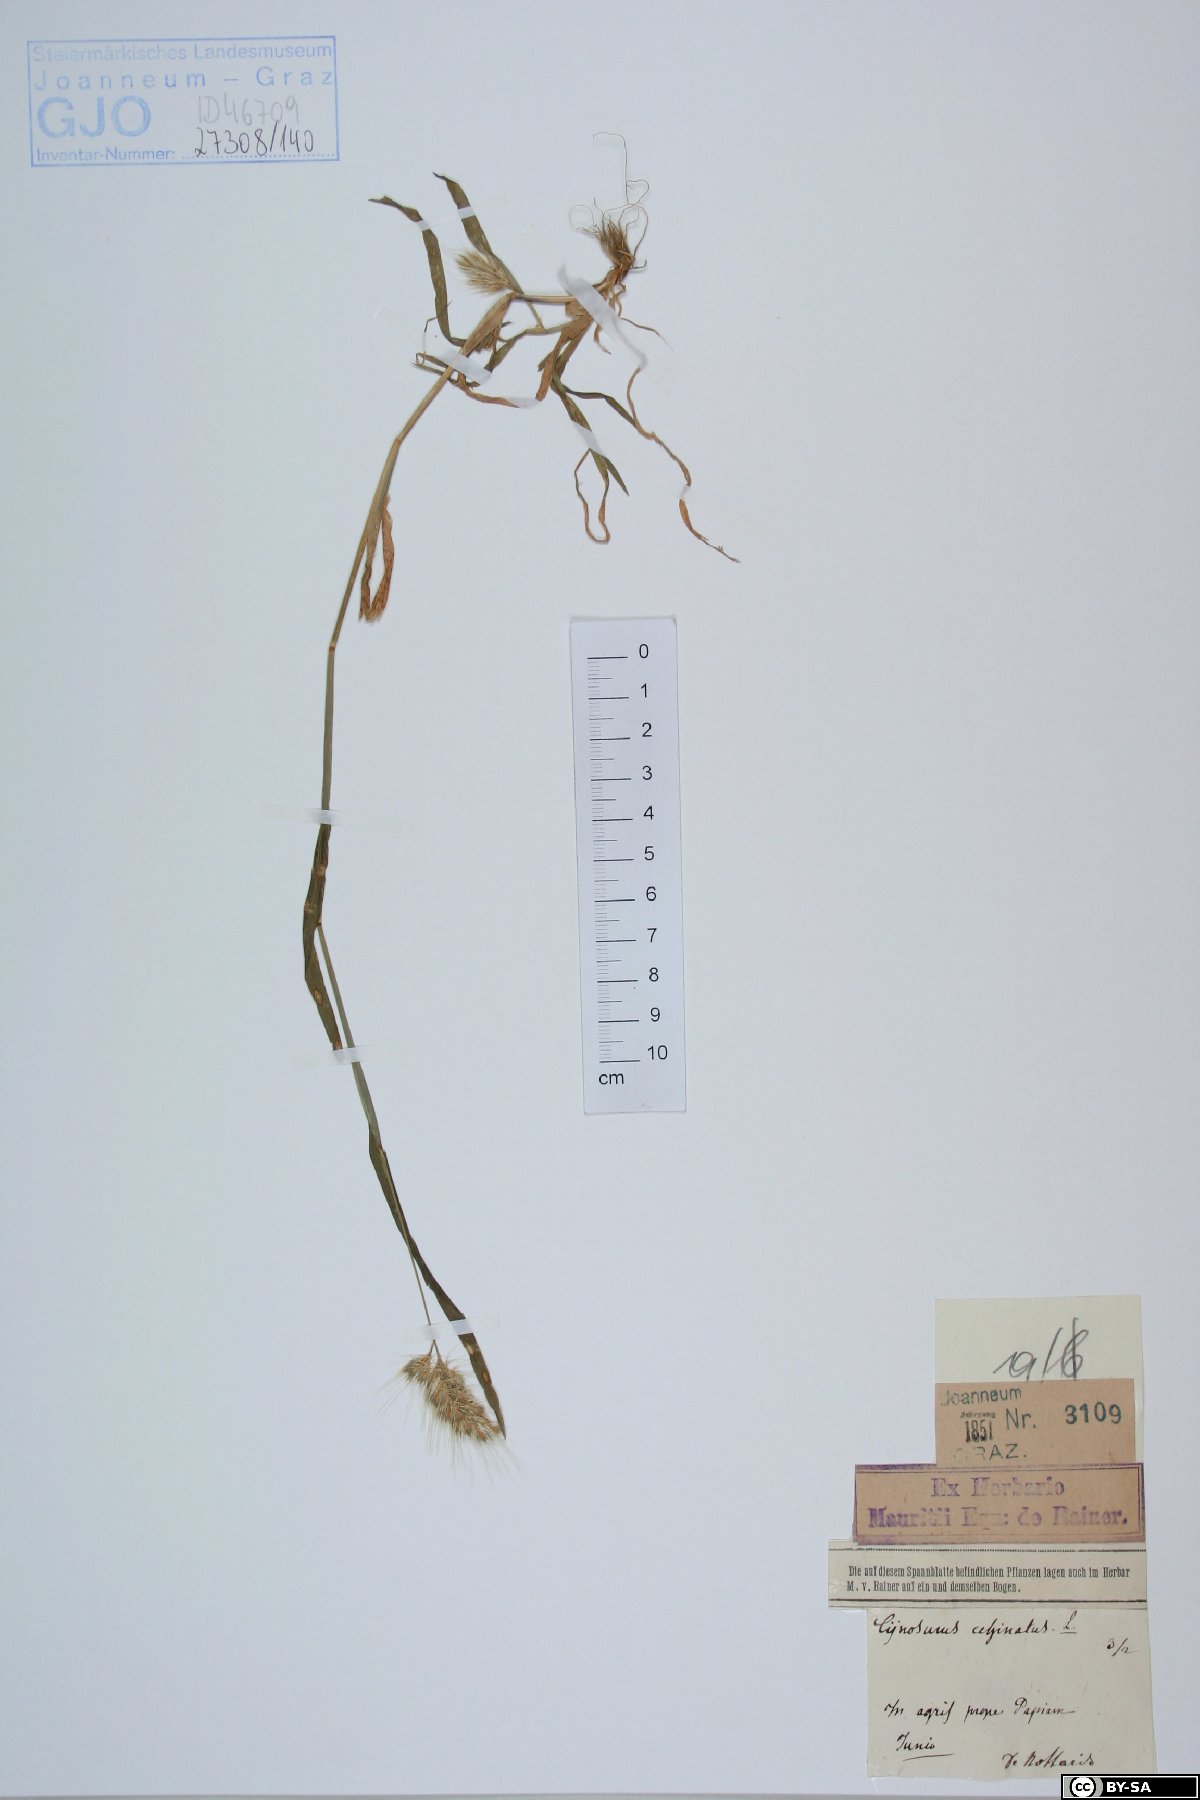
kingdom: Plantae
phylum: Tracheophyta
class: Liliopsida
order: Poales
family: Poaceae
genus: Cynosurus
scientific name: Cynosurus echinatus
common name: Rough dog's-tail
